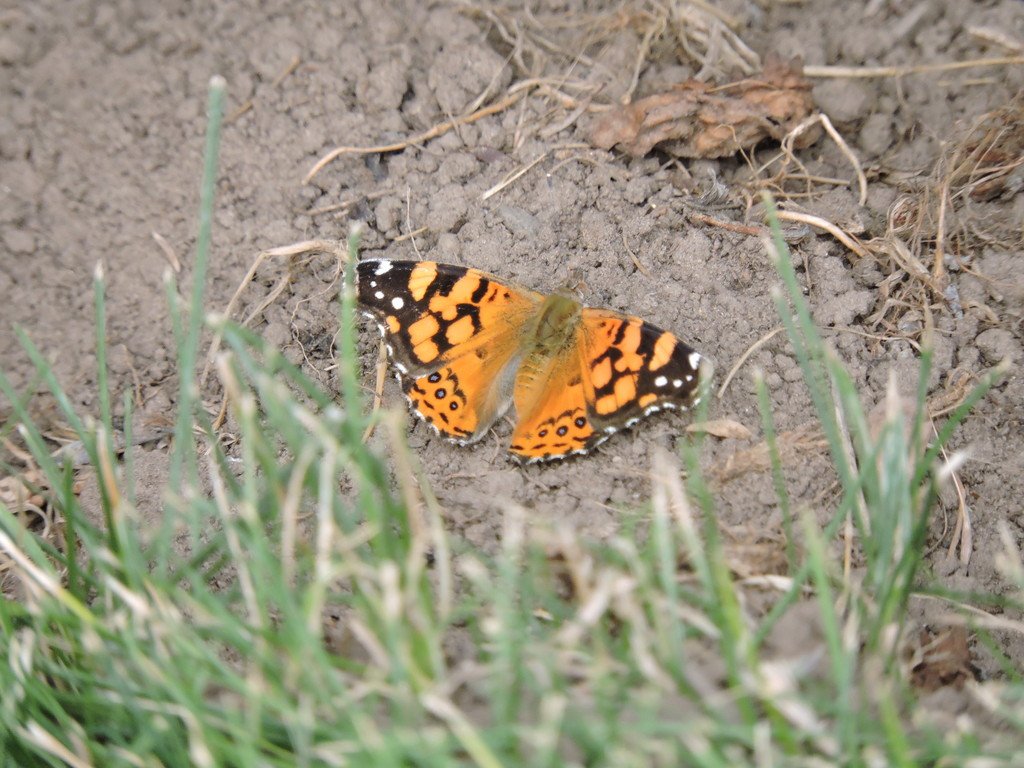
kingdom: Animalia
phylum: Arthropoda
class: Insecta
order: Lepidoptera
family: Nymphalidae
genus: Vanessa
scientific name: Vanessa annabella
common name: West Coast Lady
